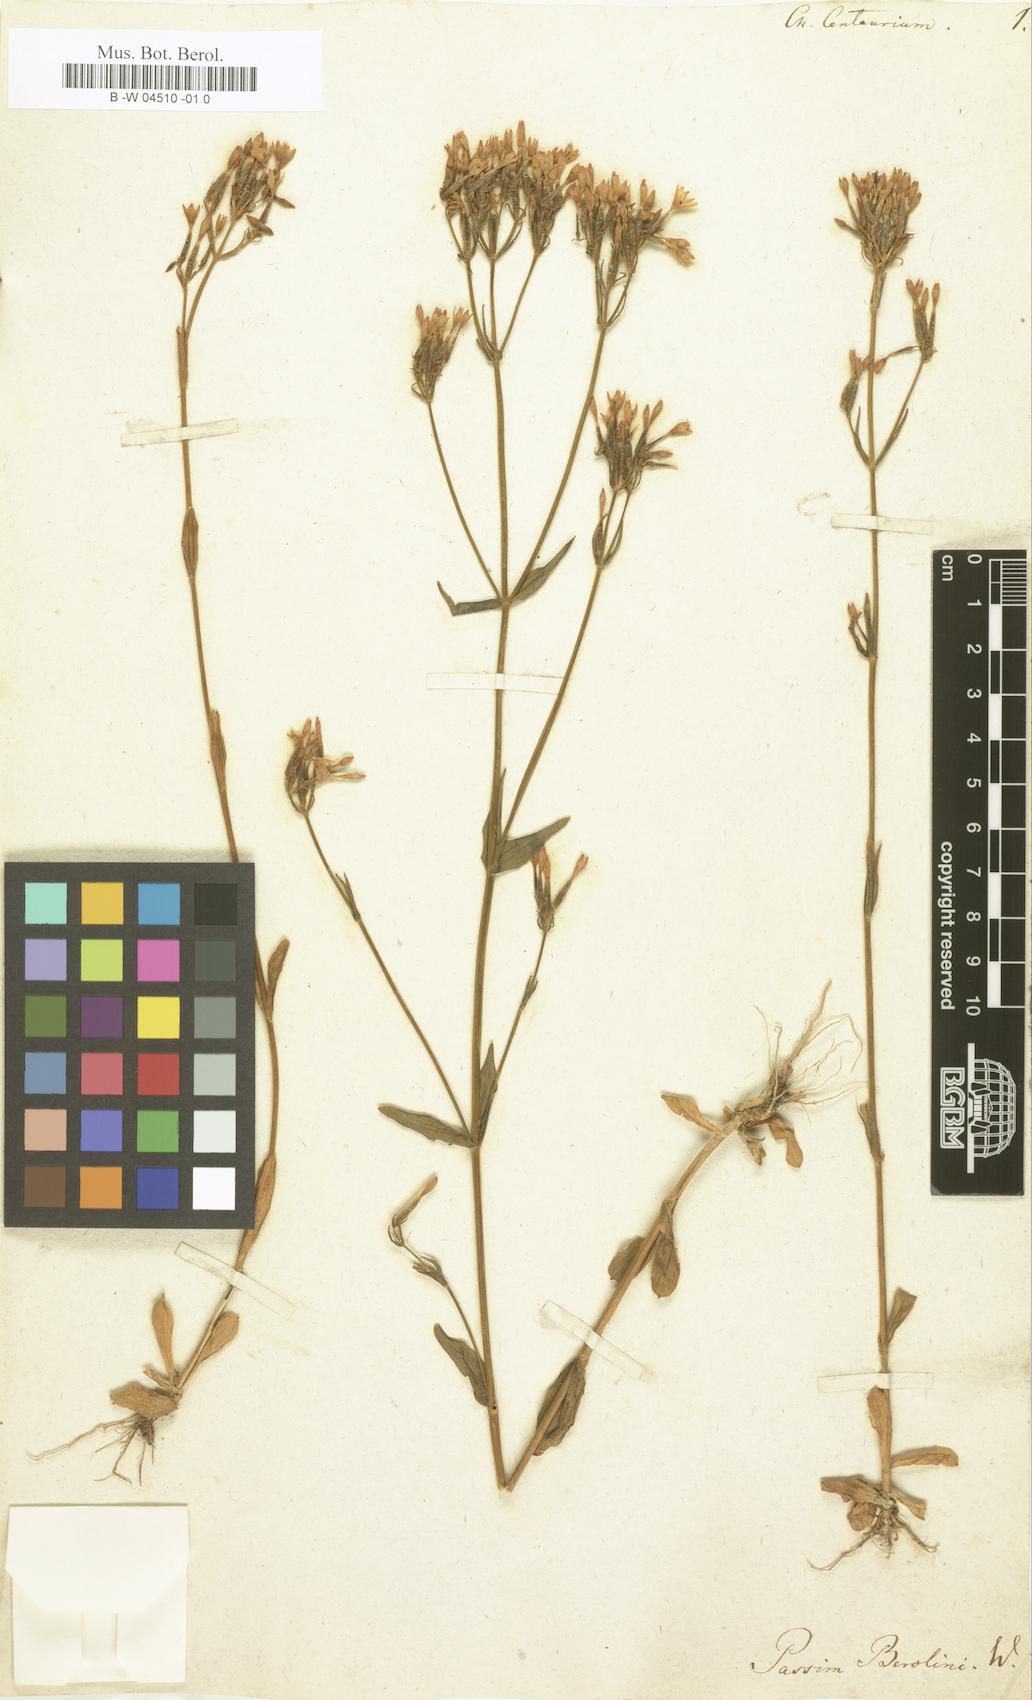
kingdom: Plantae
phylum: Tracheophyta
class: Magnoliopsida
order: Gentianales
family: Gentianaceae
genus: Centaurium
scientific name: Centaurium erythraea
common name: Common centaury
